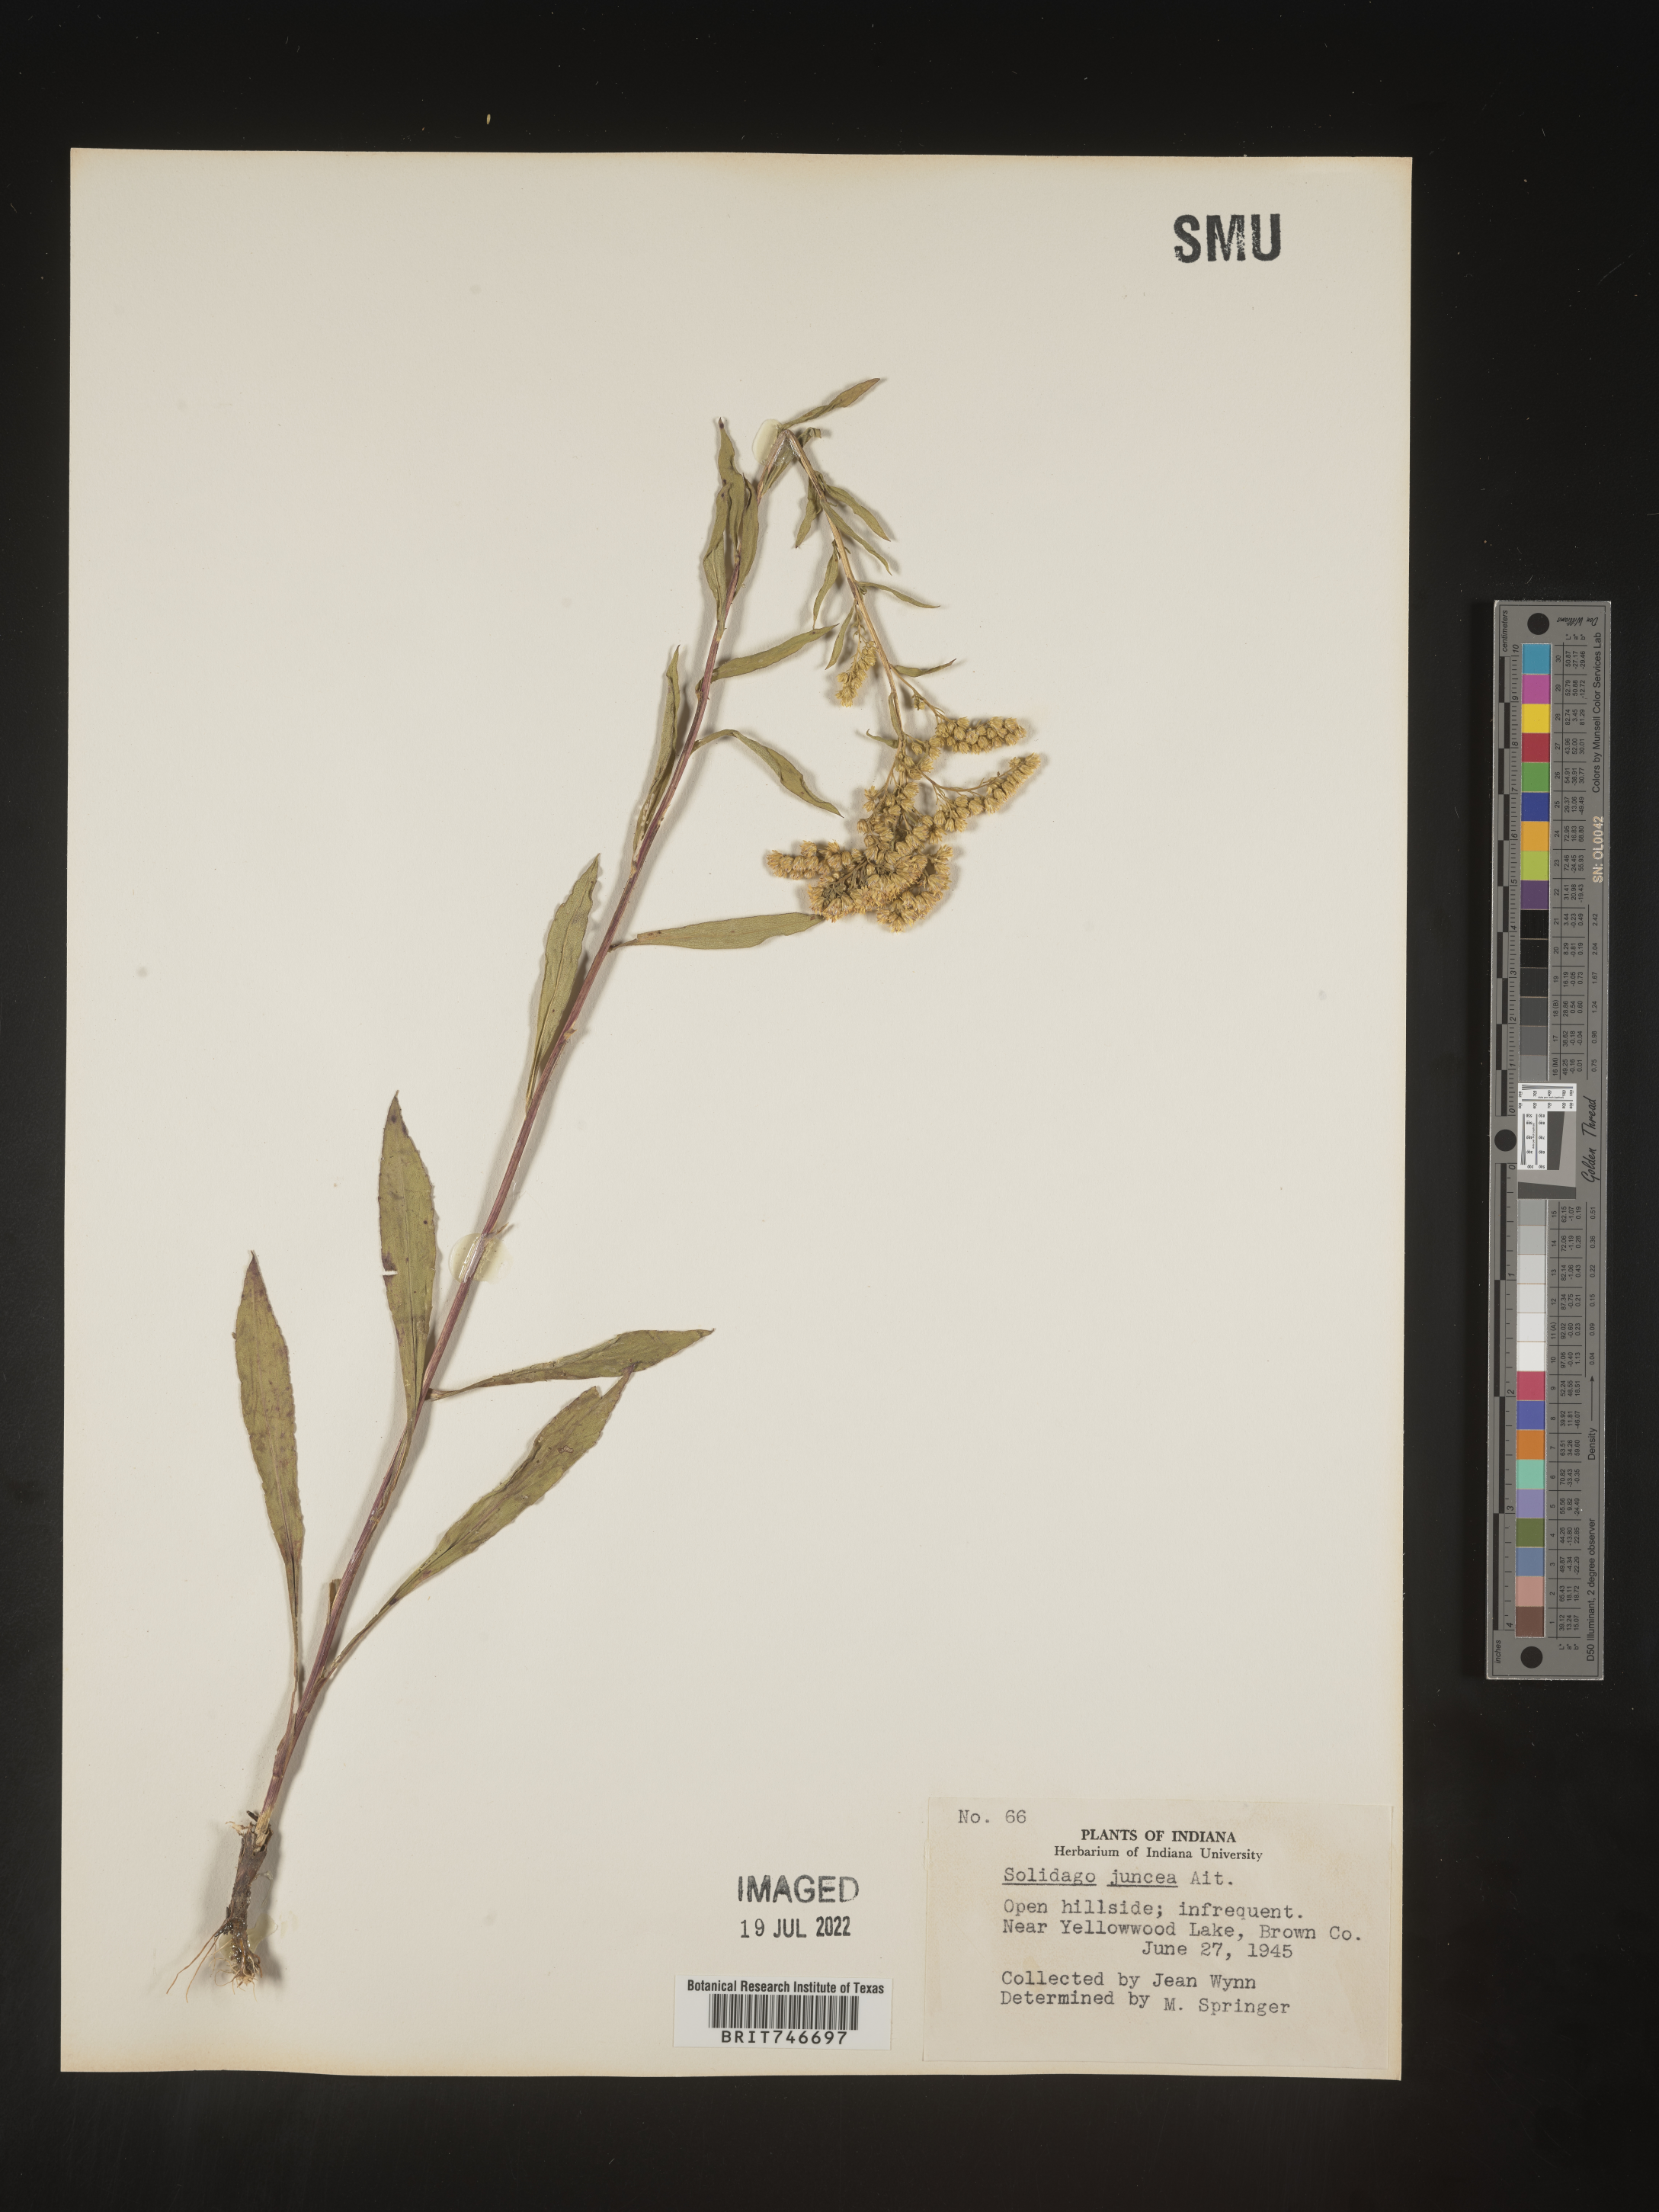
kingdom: Plantae
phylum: Tracheophyta
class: Magnoliopsida
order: Asterales
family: Asteraceae
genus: Solidago
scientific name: Solidago juncea
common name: Early goldenrod
